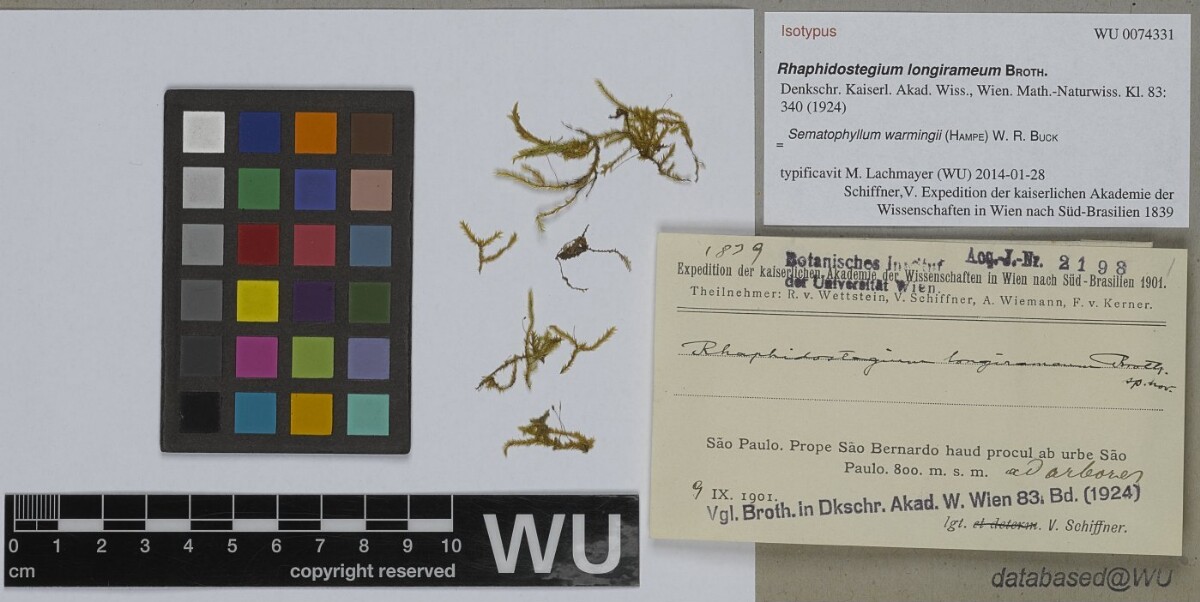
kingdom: Plantae
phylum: Bryophyta
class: Bryopsida
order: Hypnales
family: Sematophyllaceae
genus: Sematophyllum
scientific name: Sematophyllum warmingii
